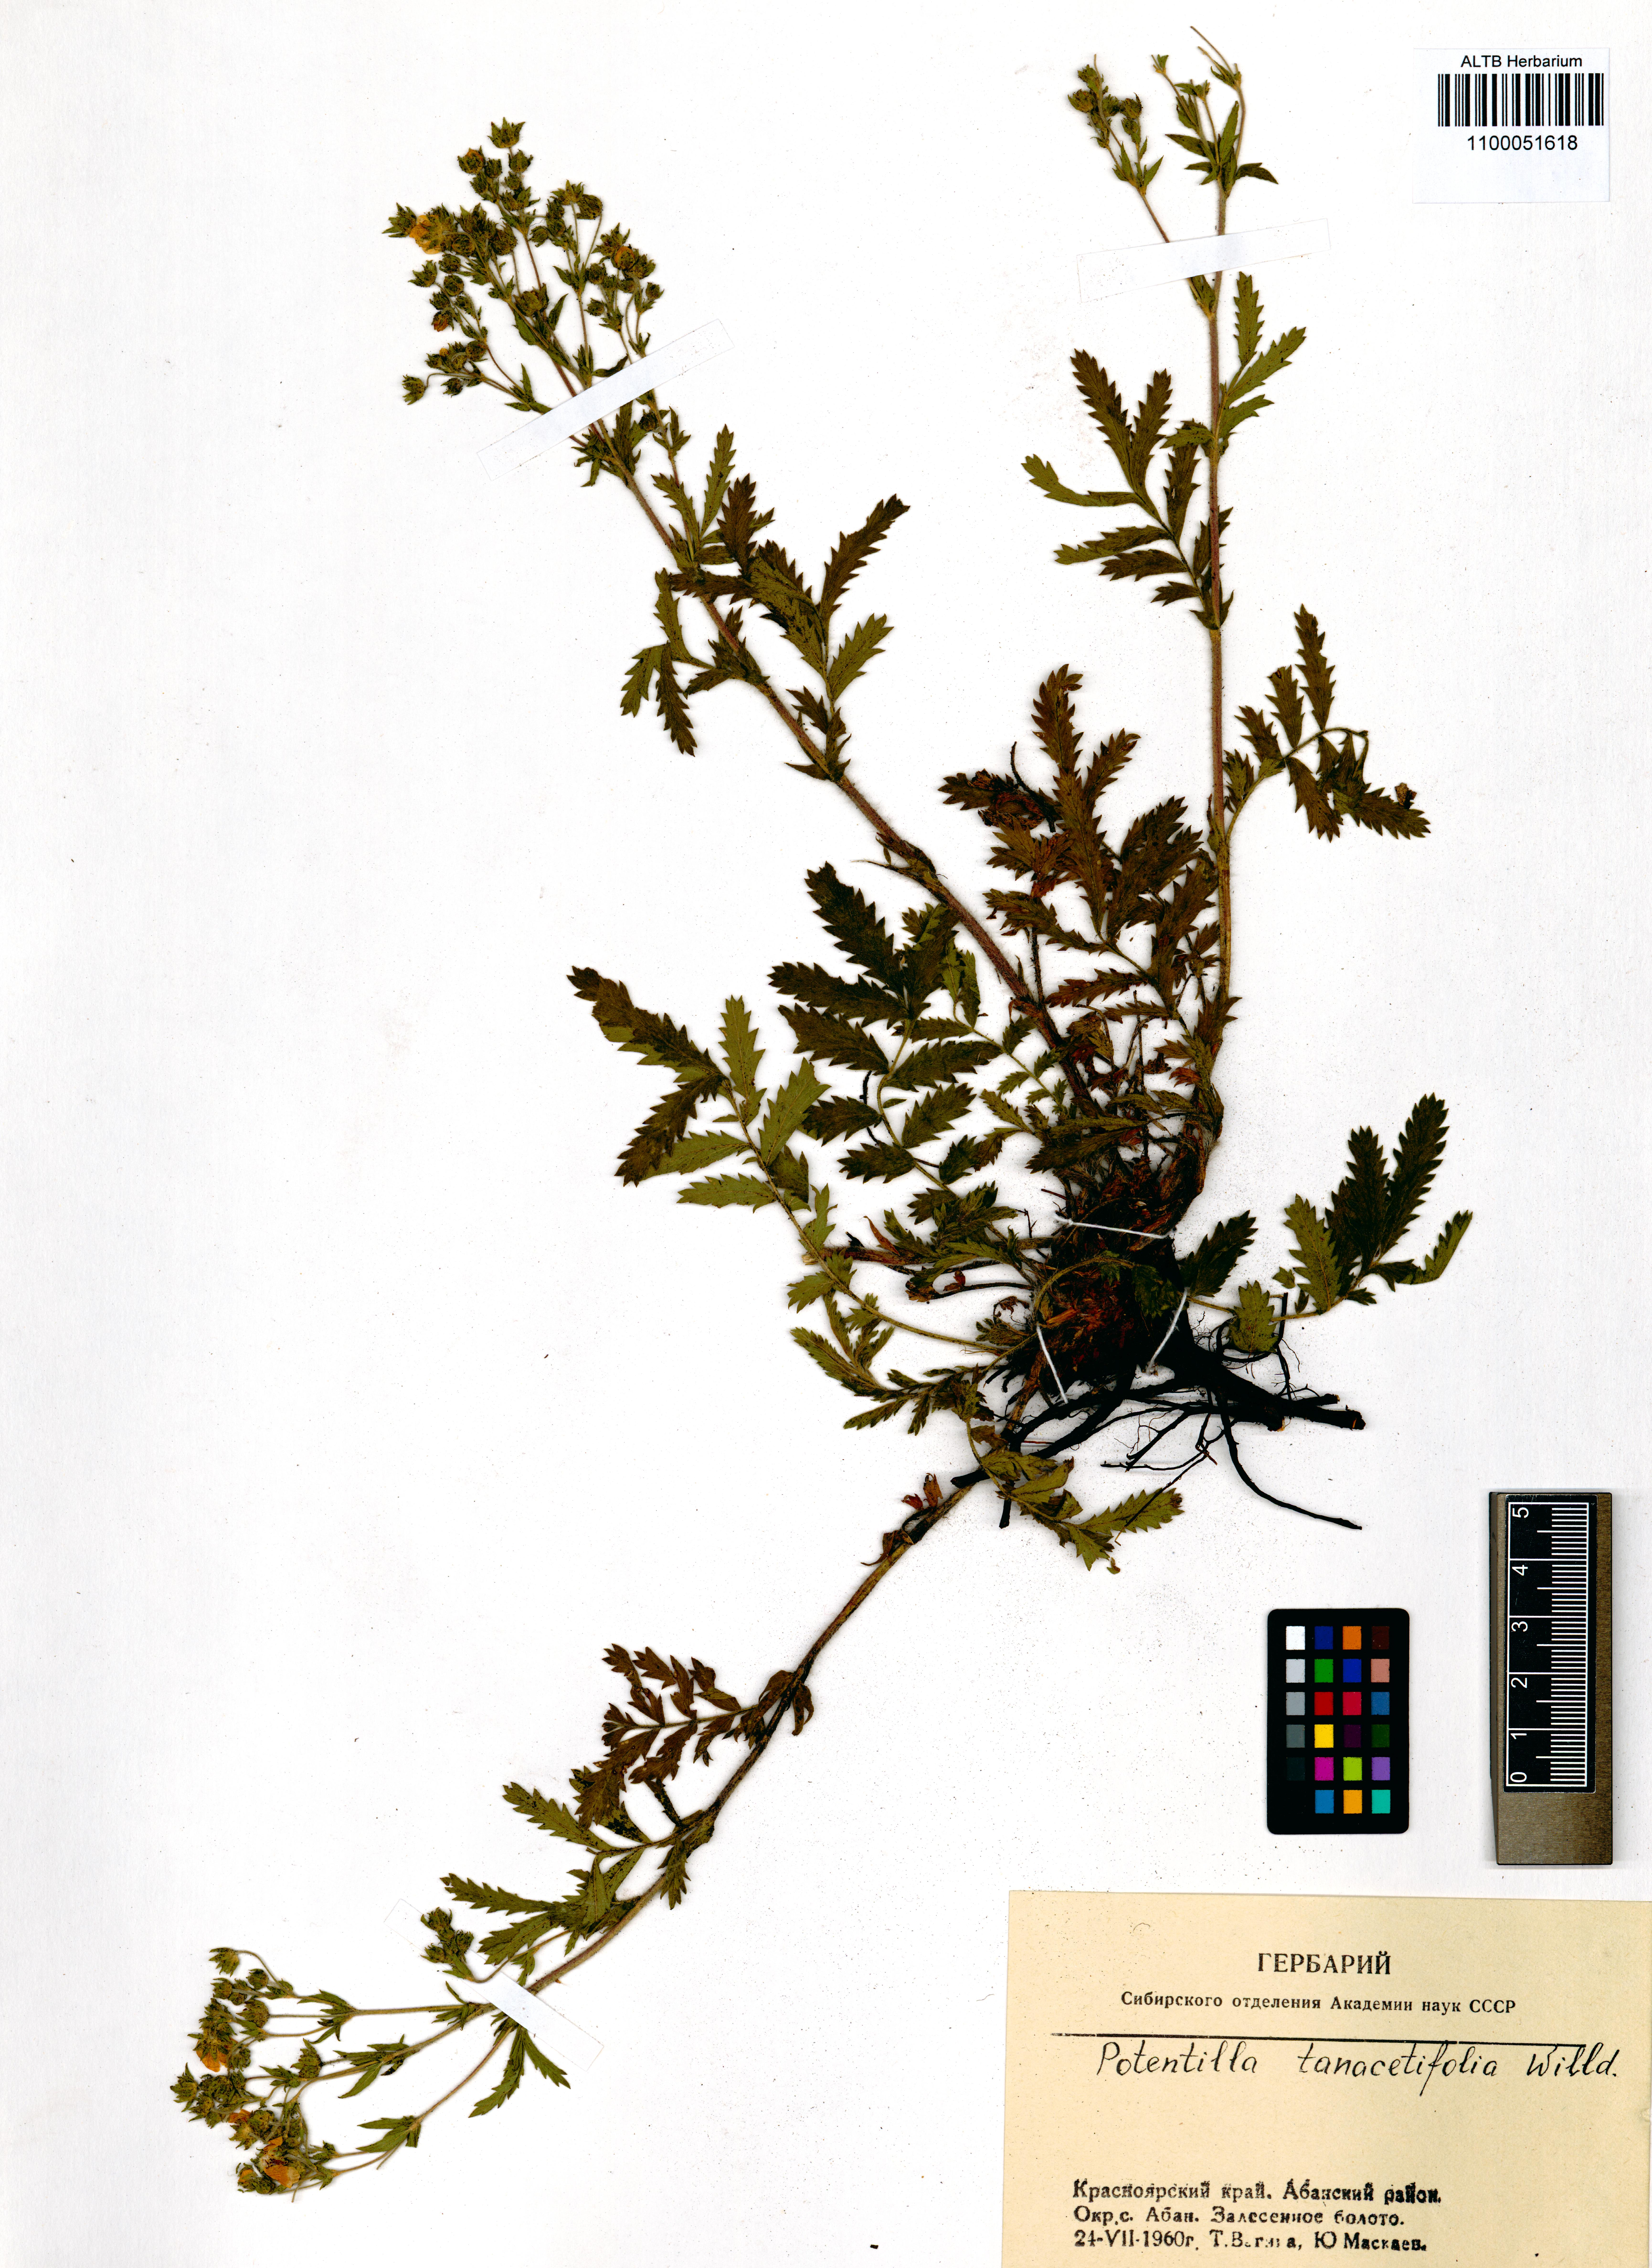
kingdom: Plantae
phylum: Tracheophyta
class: Magnoliopsida
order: Rosales
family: Rosaceae
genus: Potentilla
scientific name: Potentilla tanacetifolia
